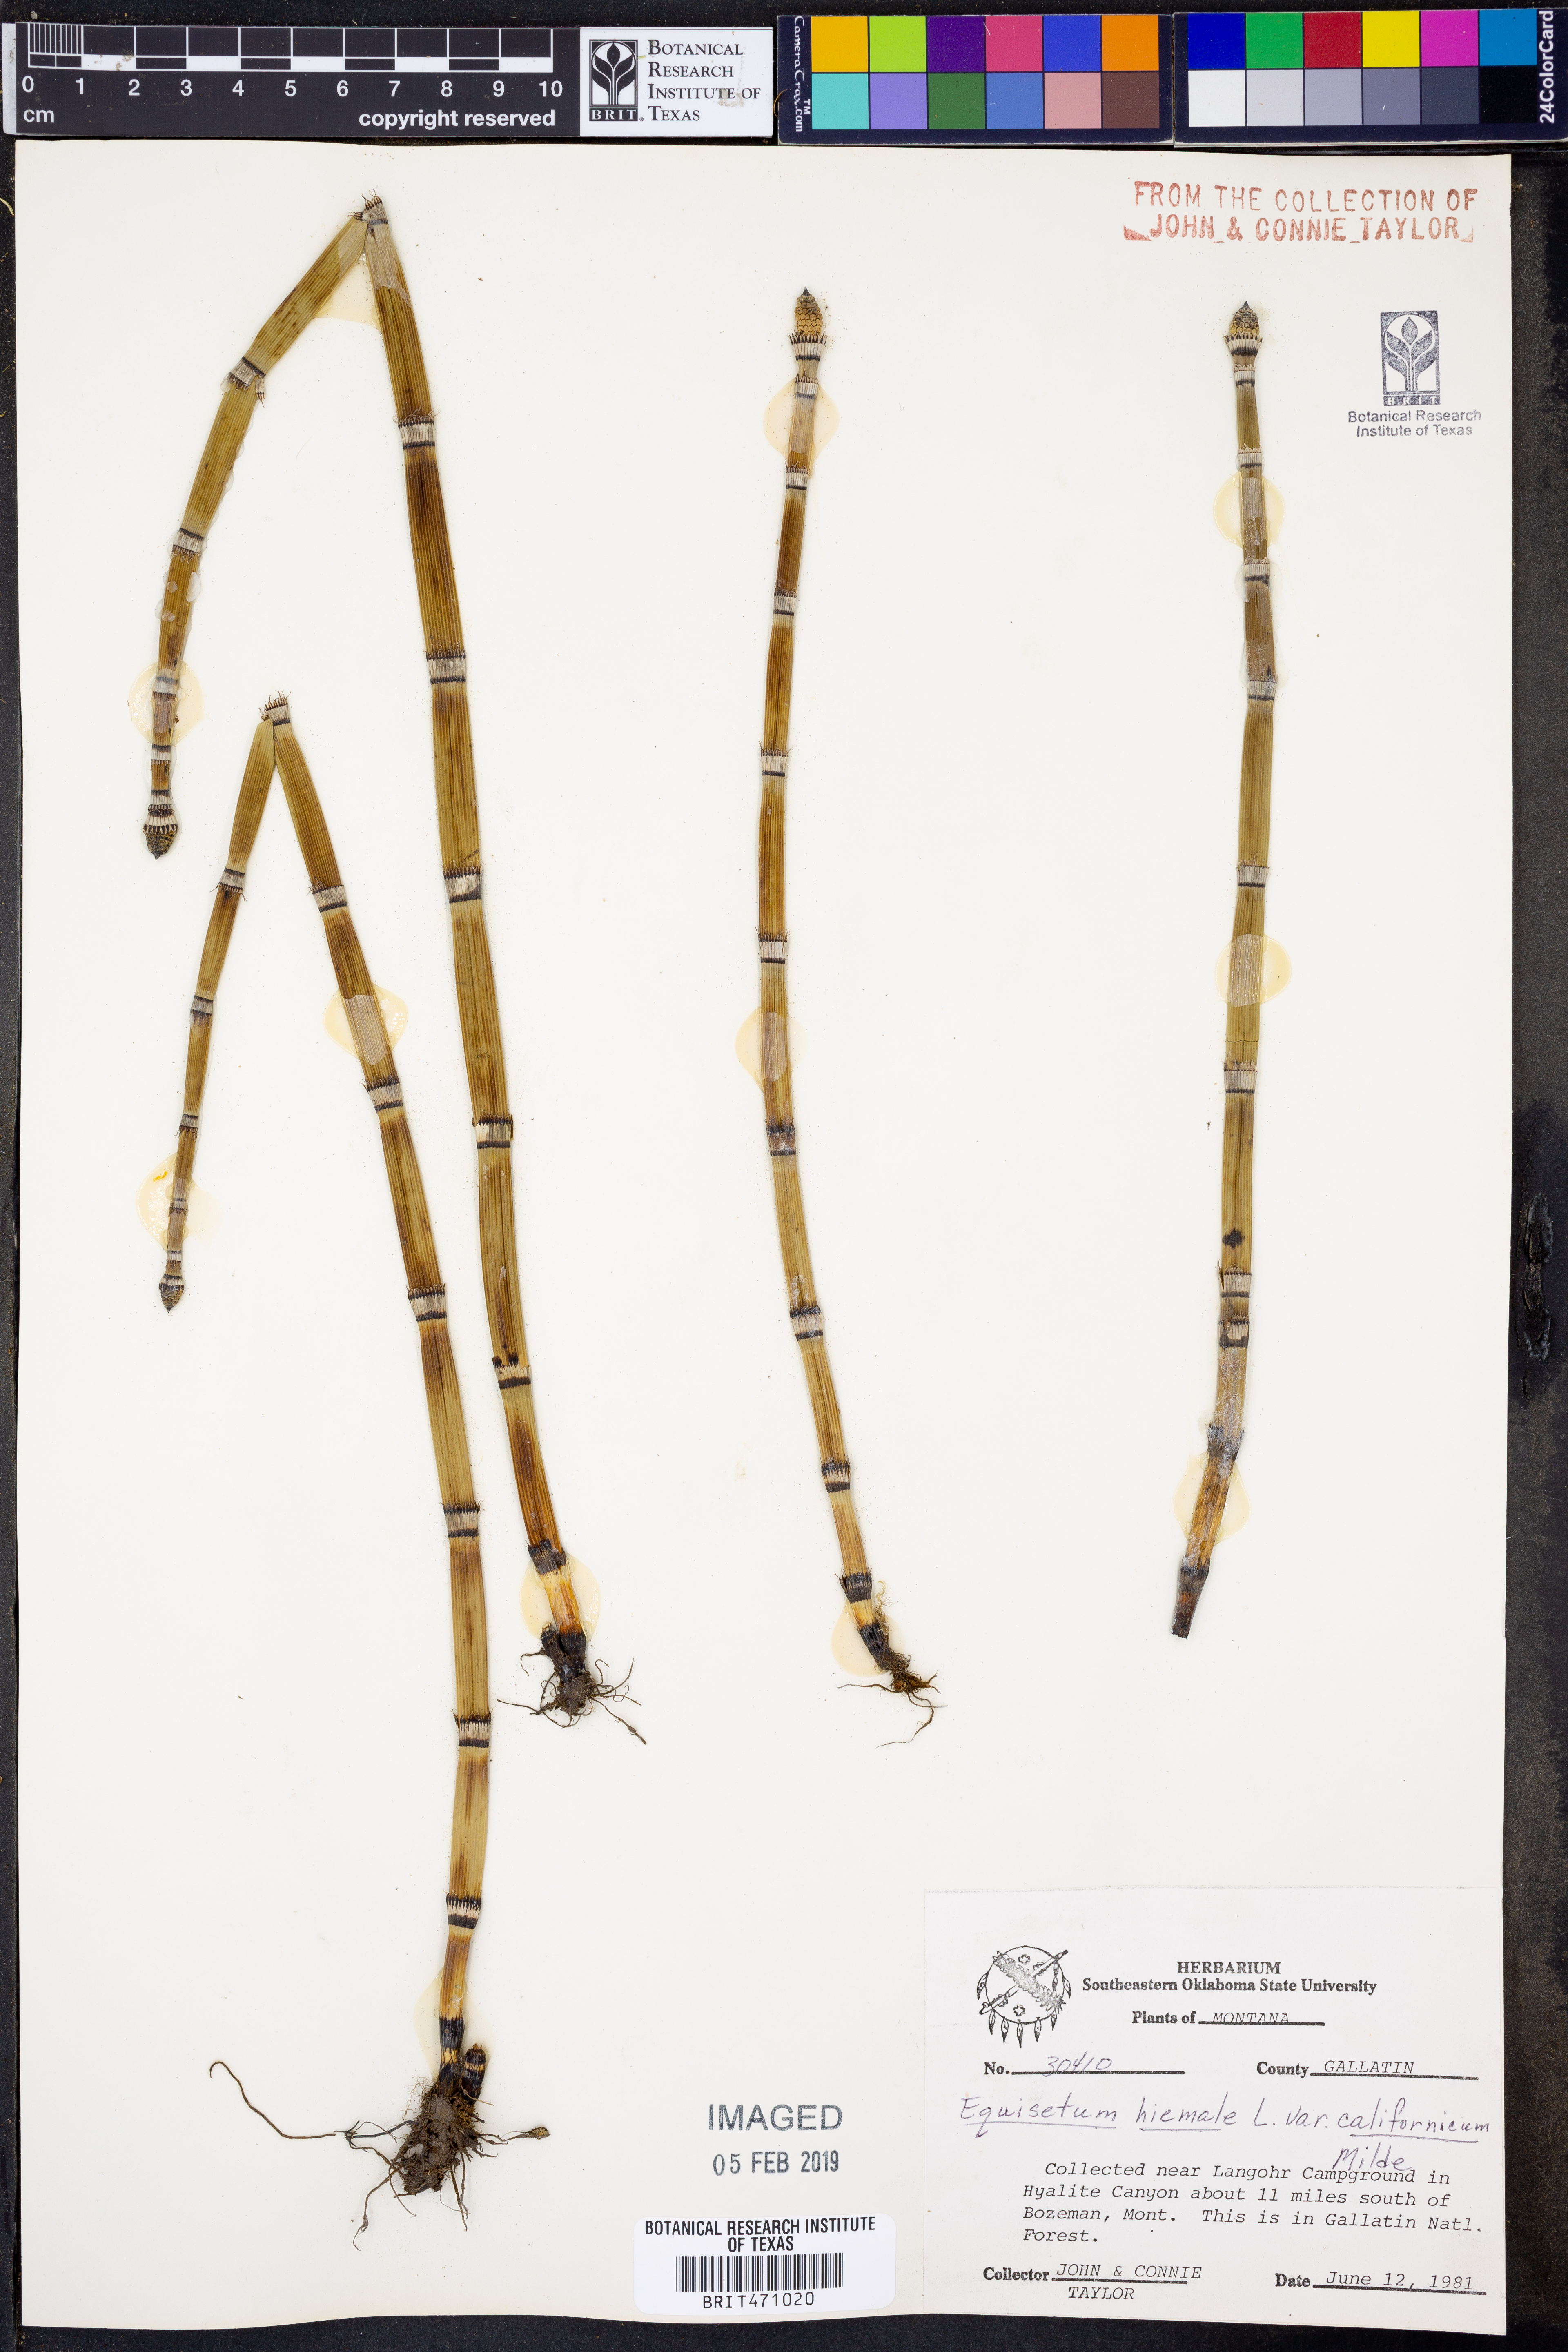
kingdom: Plantae
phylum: Tracheophyta
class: Polypodiopsida
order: Equisetales
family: Equisetaceae
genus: Equisetum
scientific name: Equisetum praealtum
